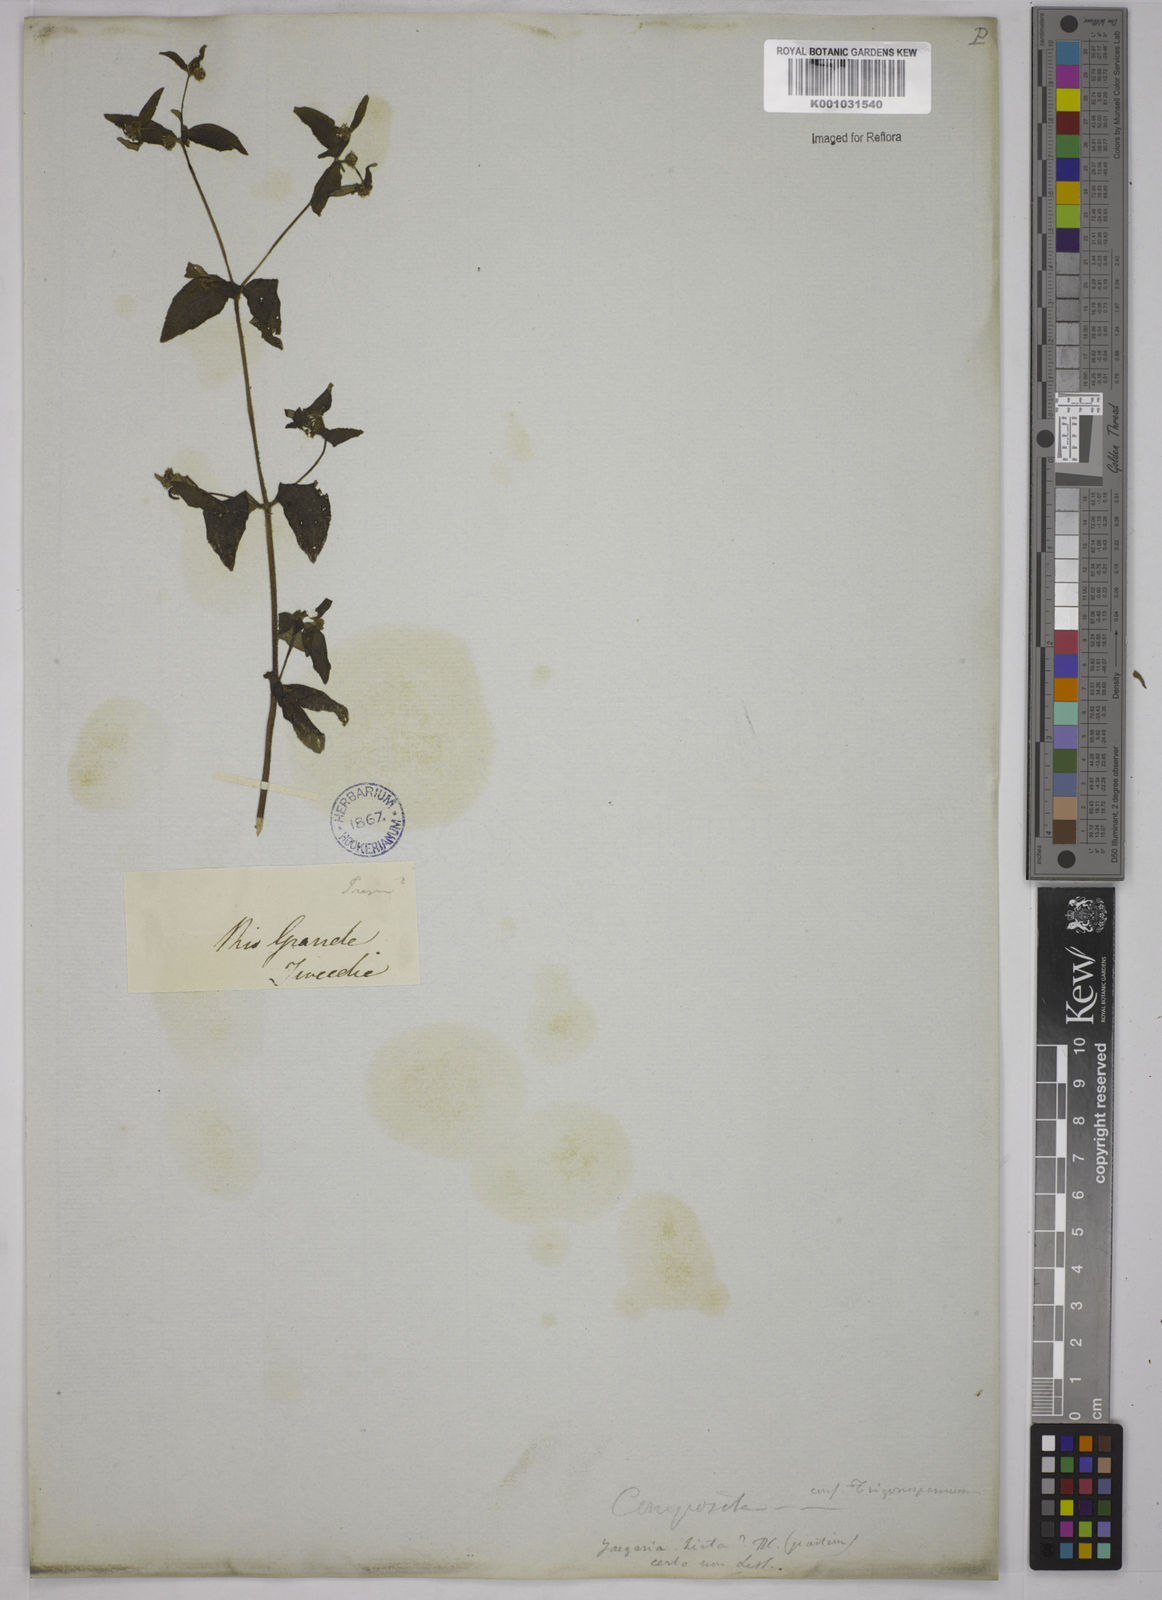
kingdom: Plantae
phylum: Tracheophyta
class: Magnoliopsida
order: Asterales
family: Asteraceae
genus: Jaegeria
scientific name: Jaegeria hirta
